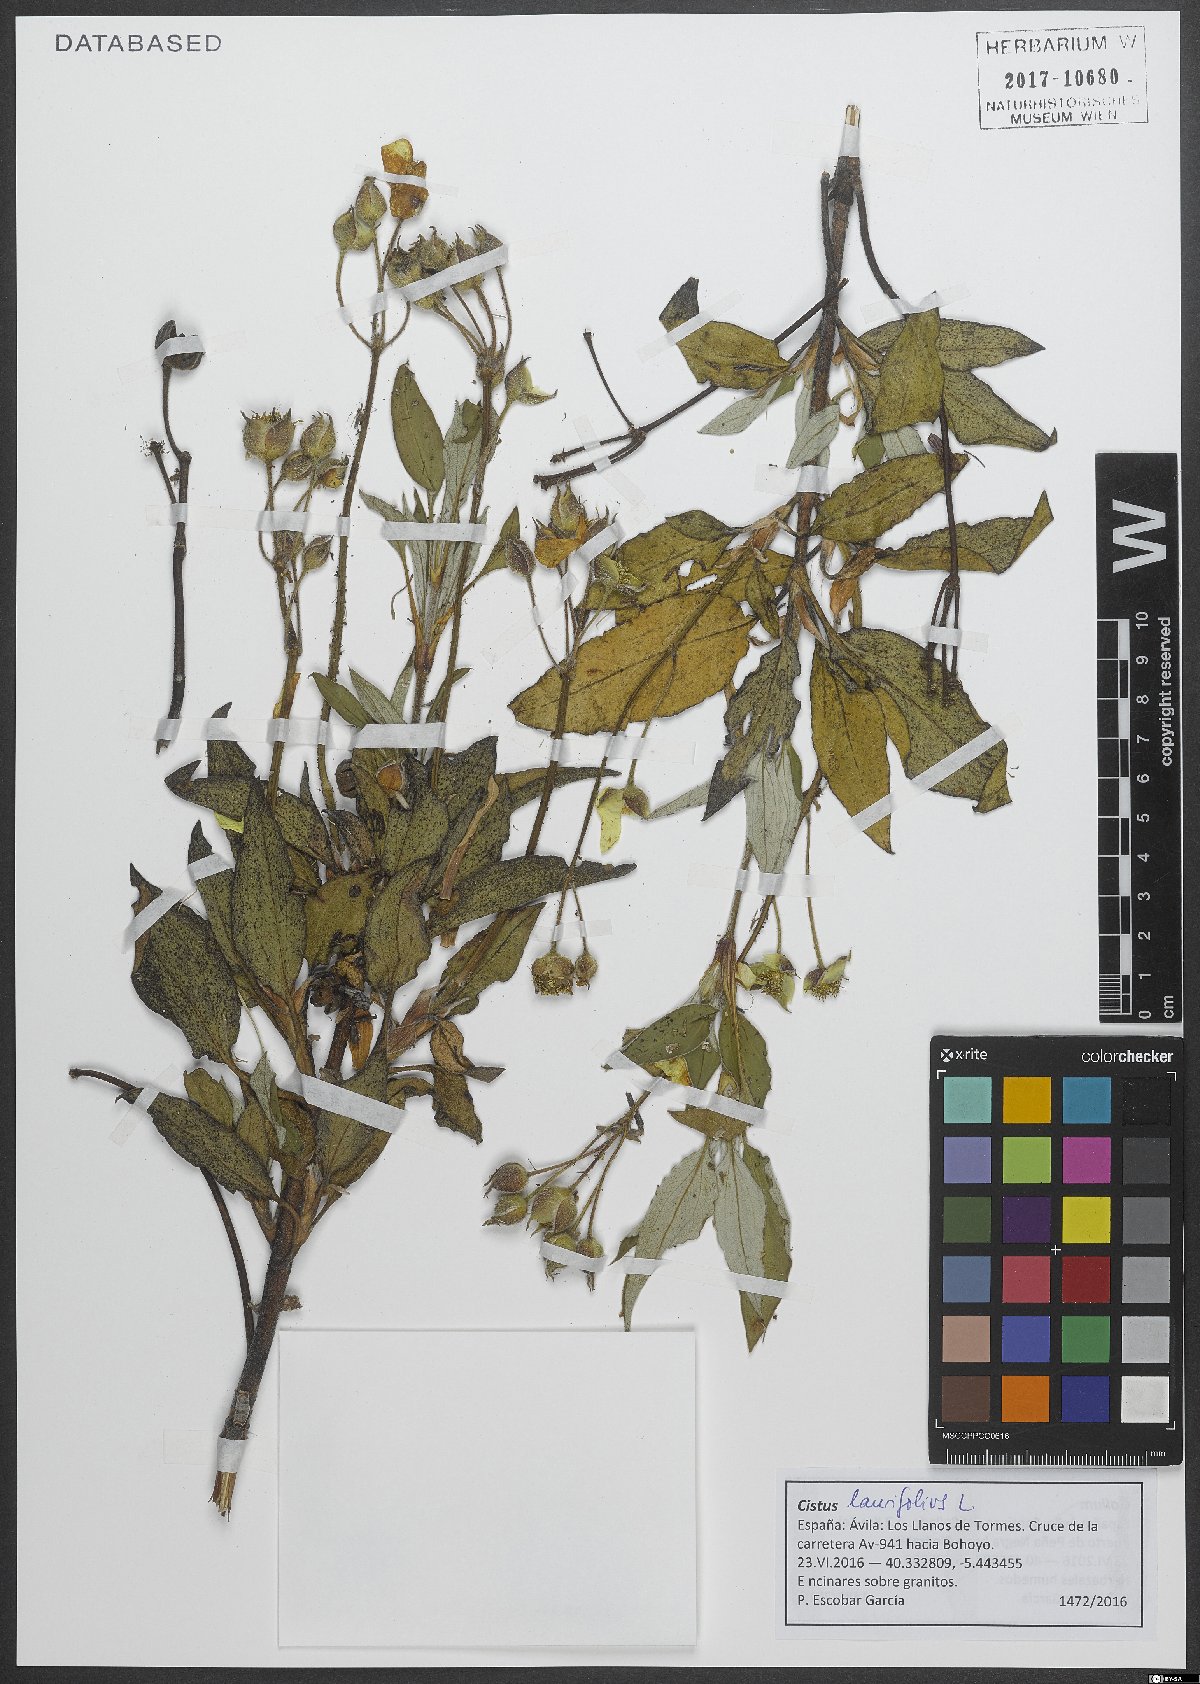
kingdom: Plantae
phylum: Tracheophyta
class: Magnoliopsida
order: Malvales
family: Cistaceae
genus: Cistus
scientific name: Cistus laurifolius
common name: Laurel-leaved cistus
